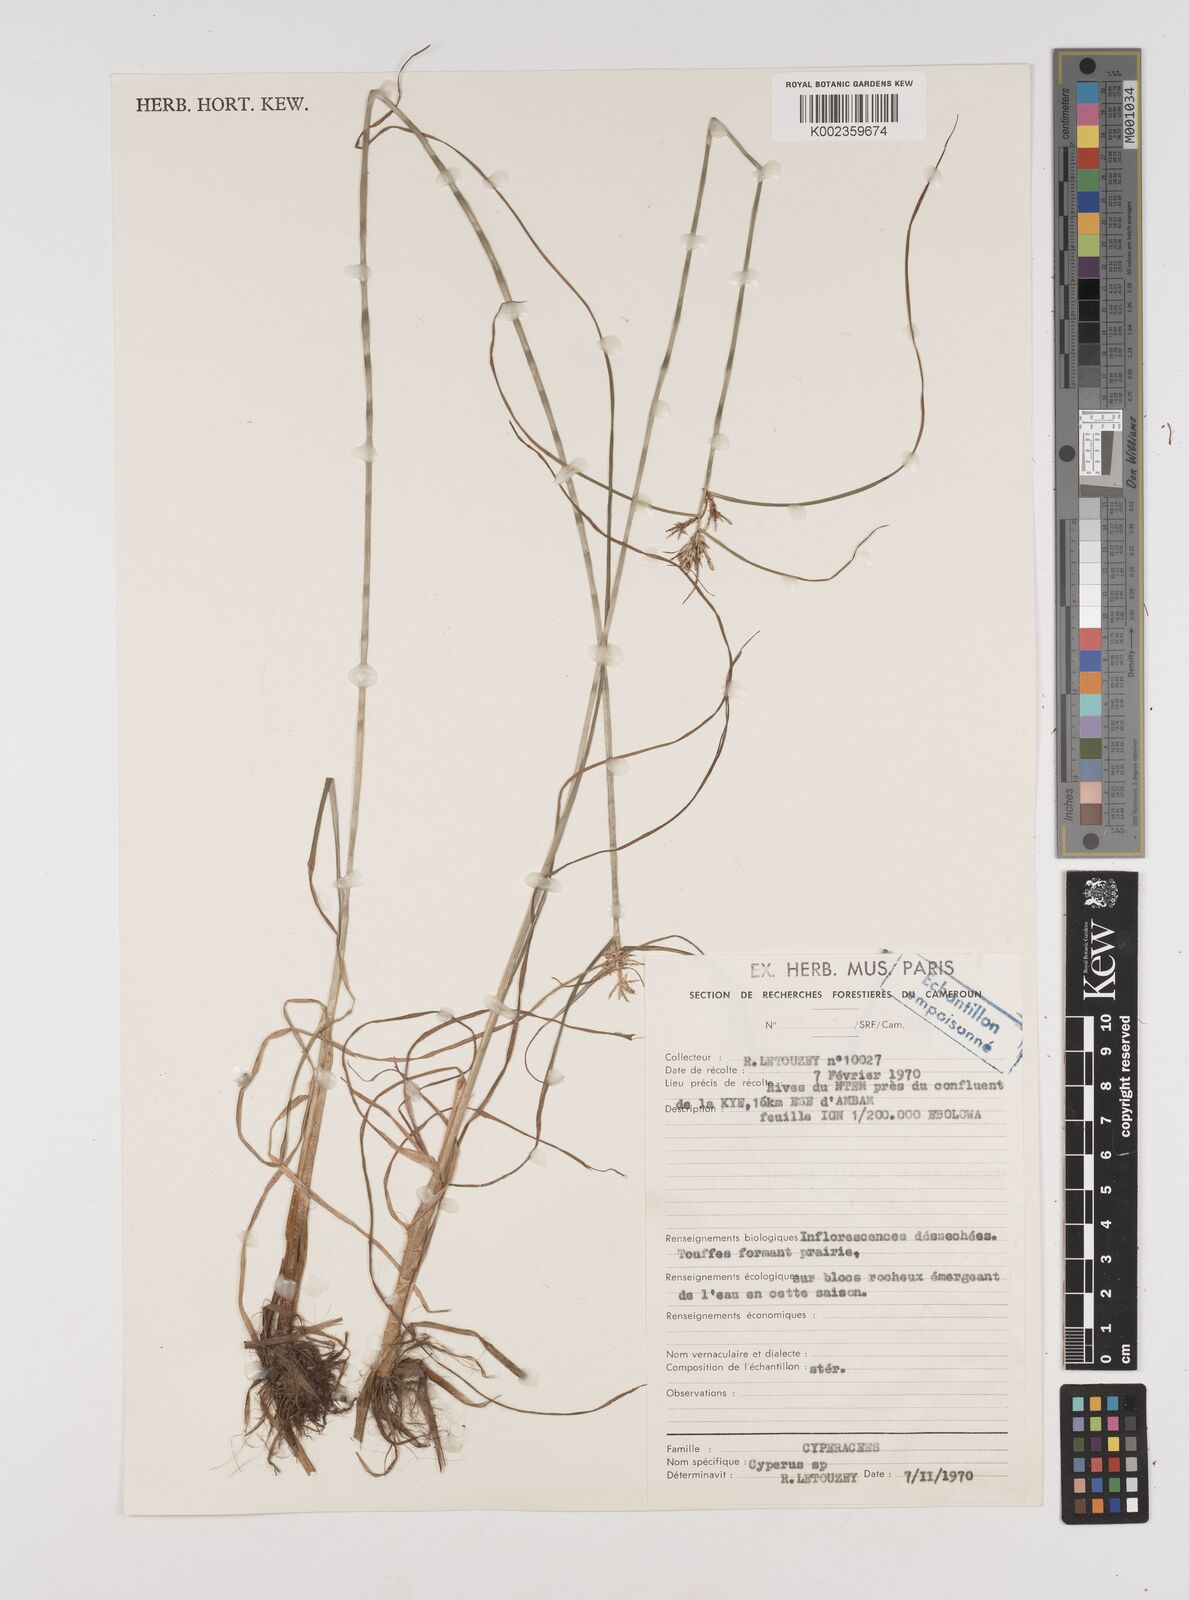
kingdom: Plantae
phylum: Tracheophyta
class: Liliopsida
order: Poales
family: Cyperaceae
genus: Cyperus
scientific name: Cyperus
